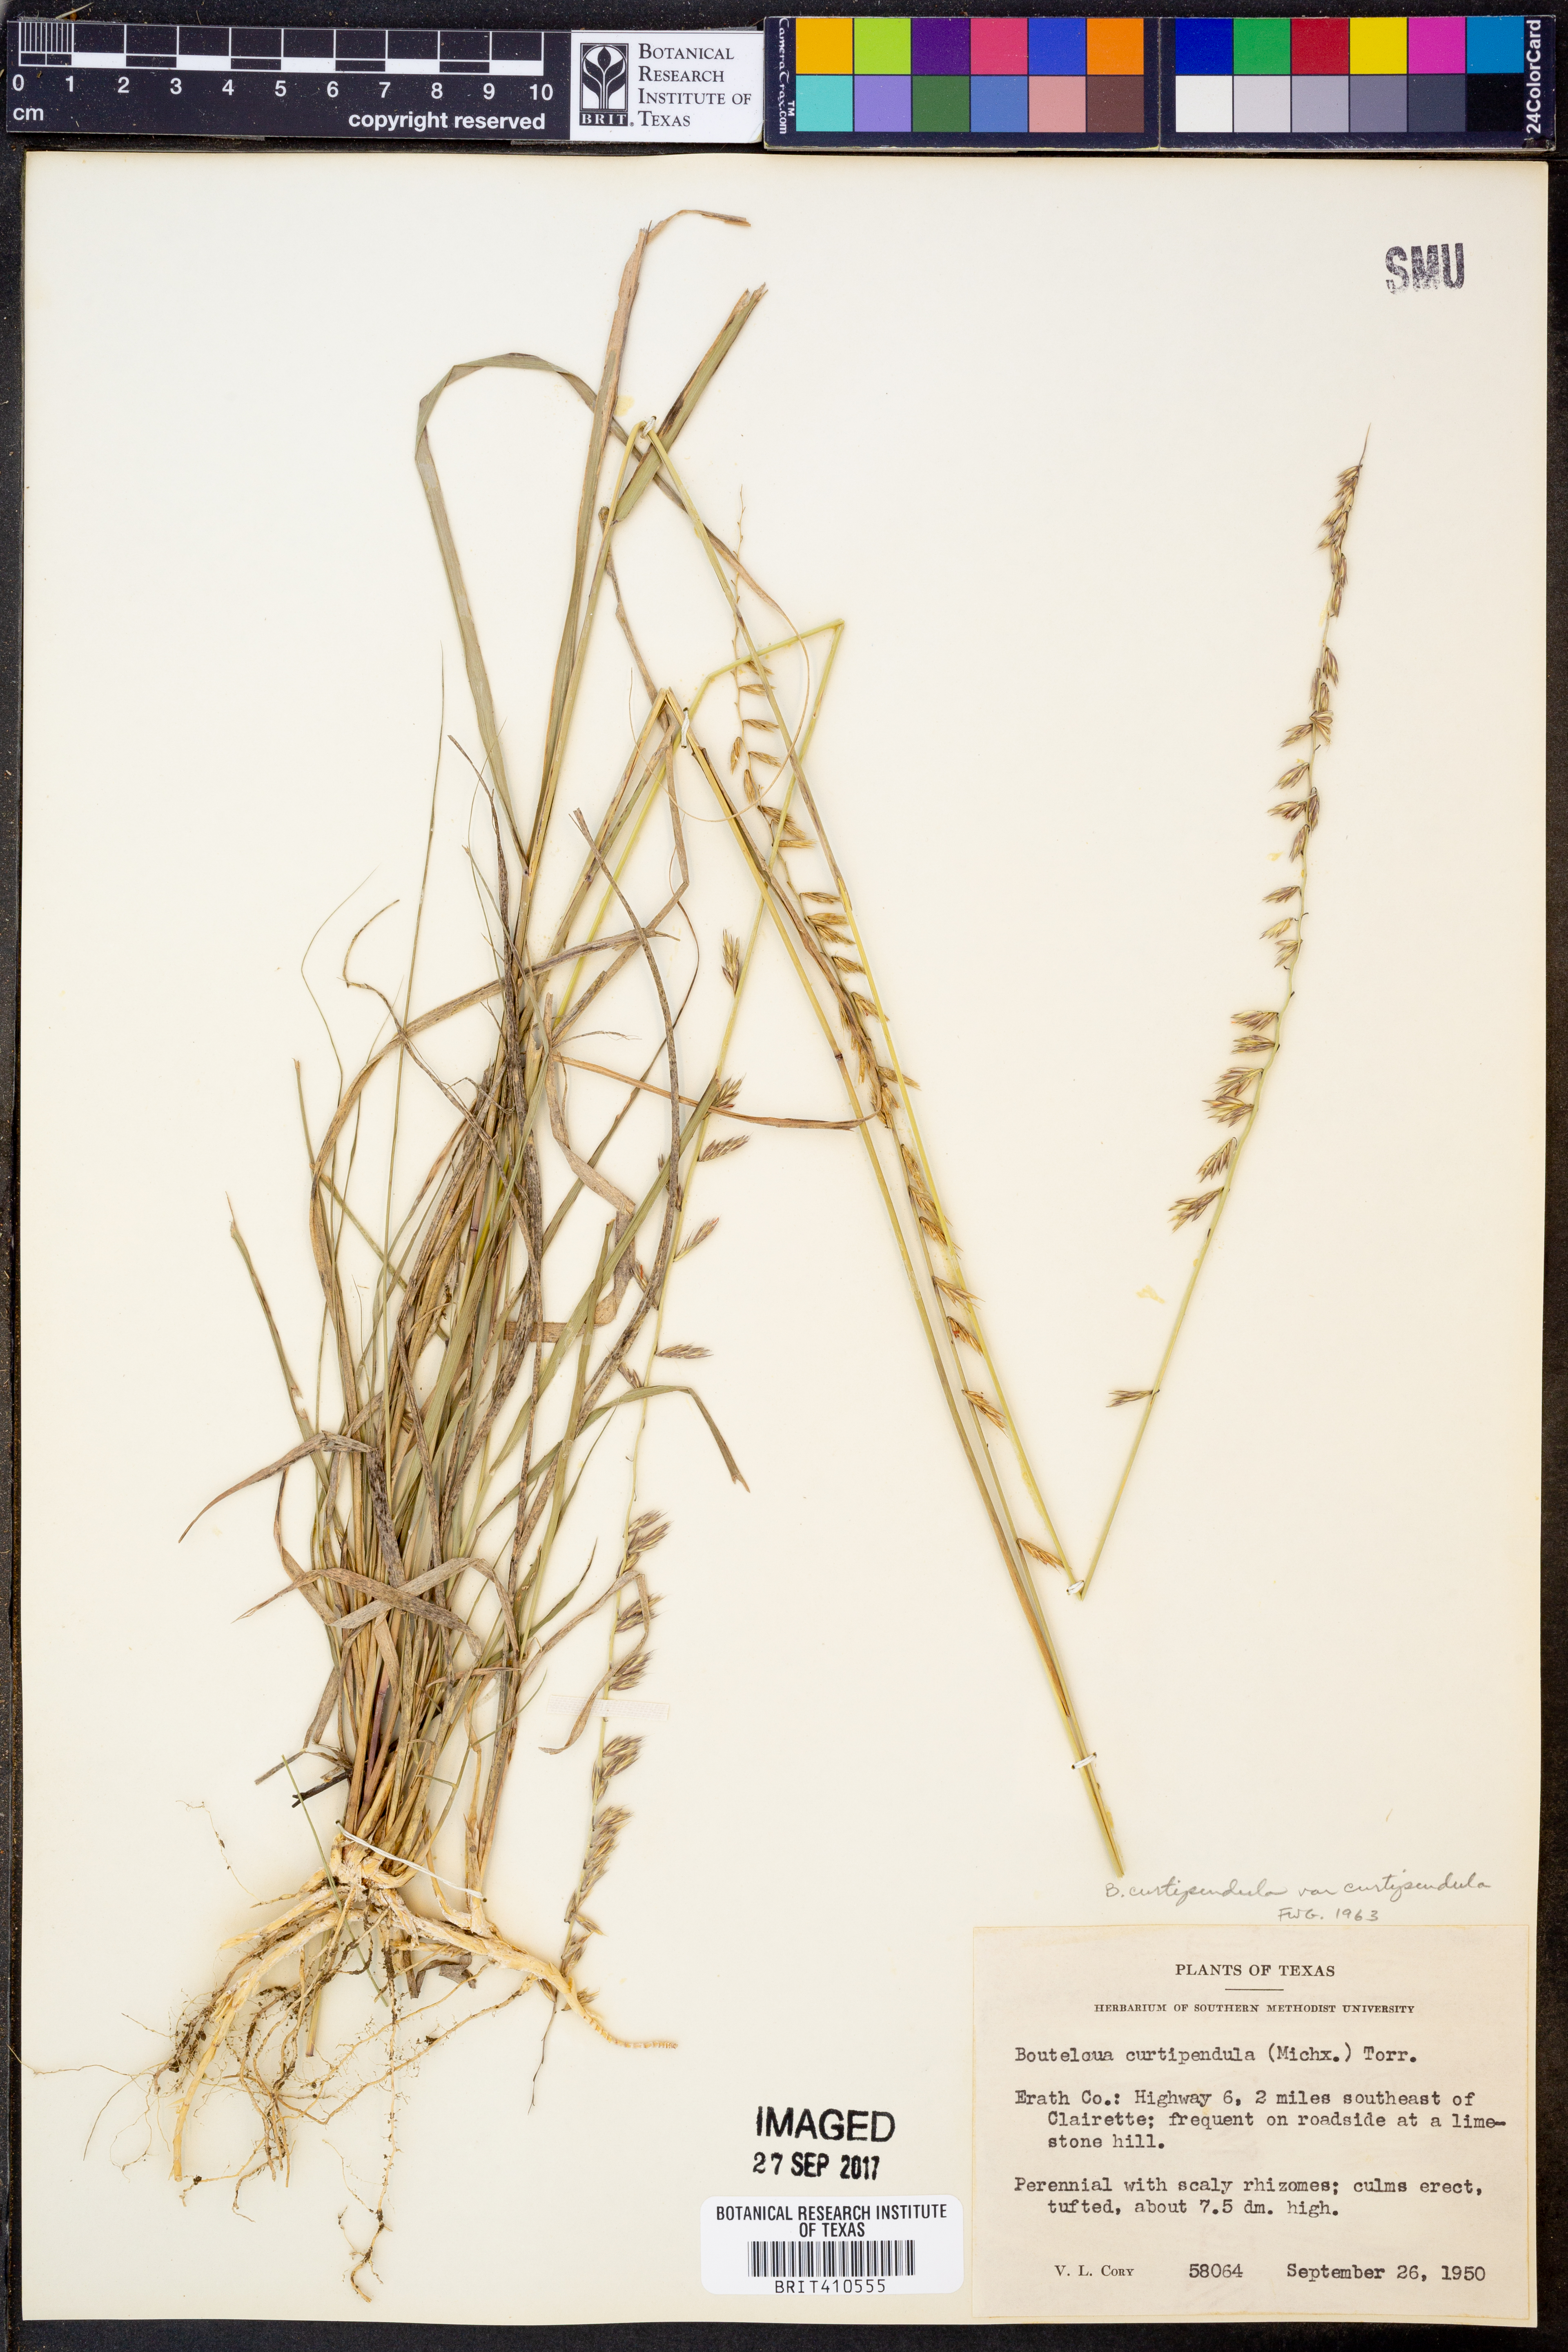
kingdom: Plantae
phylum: Tracheophyta
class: Liliopsida
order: Poales
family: Poaceae
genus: Bouteloua
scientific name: Bouteloua curtipendula
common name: Side-oats grama
